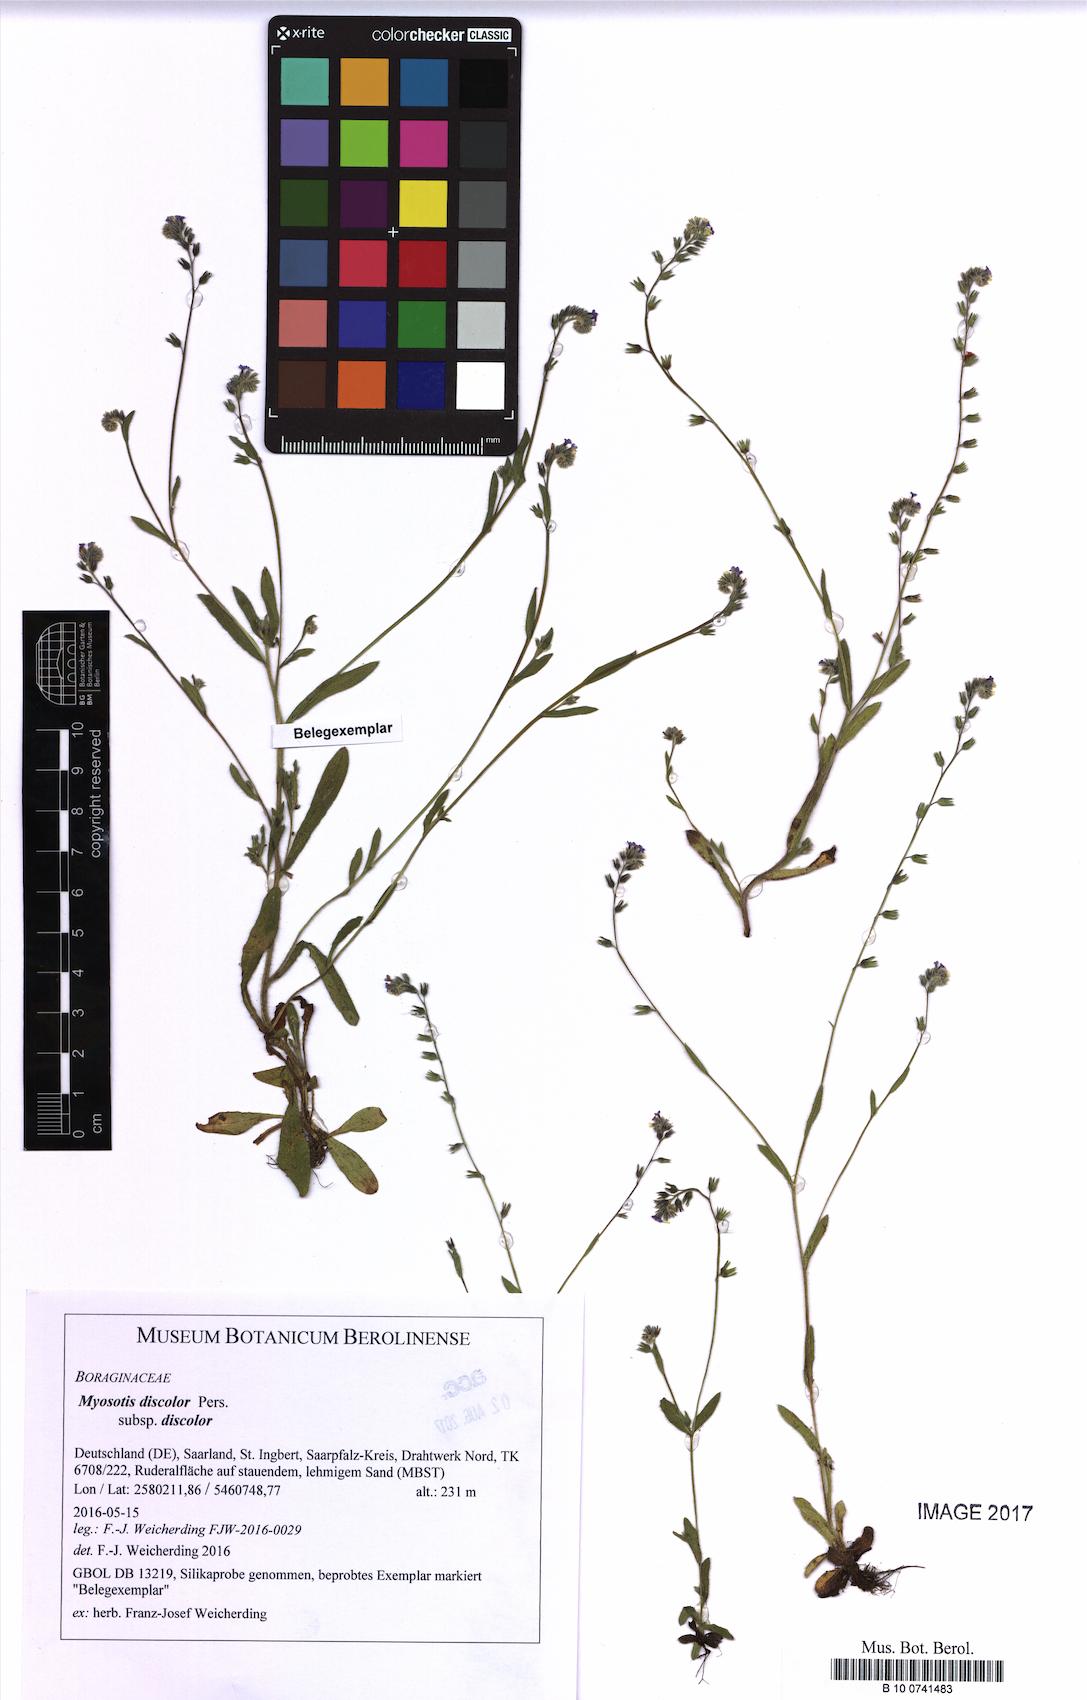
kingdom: Plantae
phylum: Tracheophyta
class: Magnoliopsida
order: Boraginales
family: Boraginaceae
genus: Myosotis
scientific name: Myosotis discolor
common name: Changing forget-me-not
